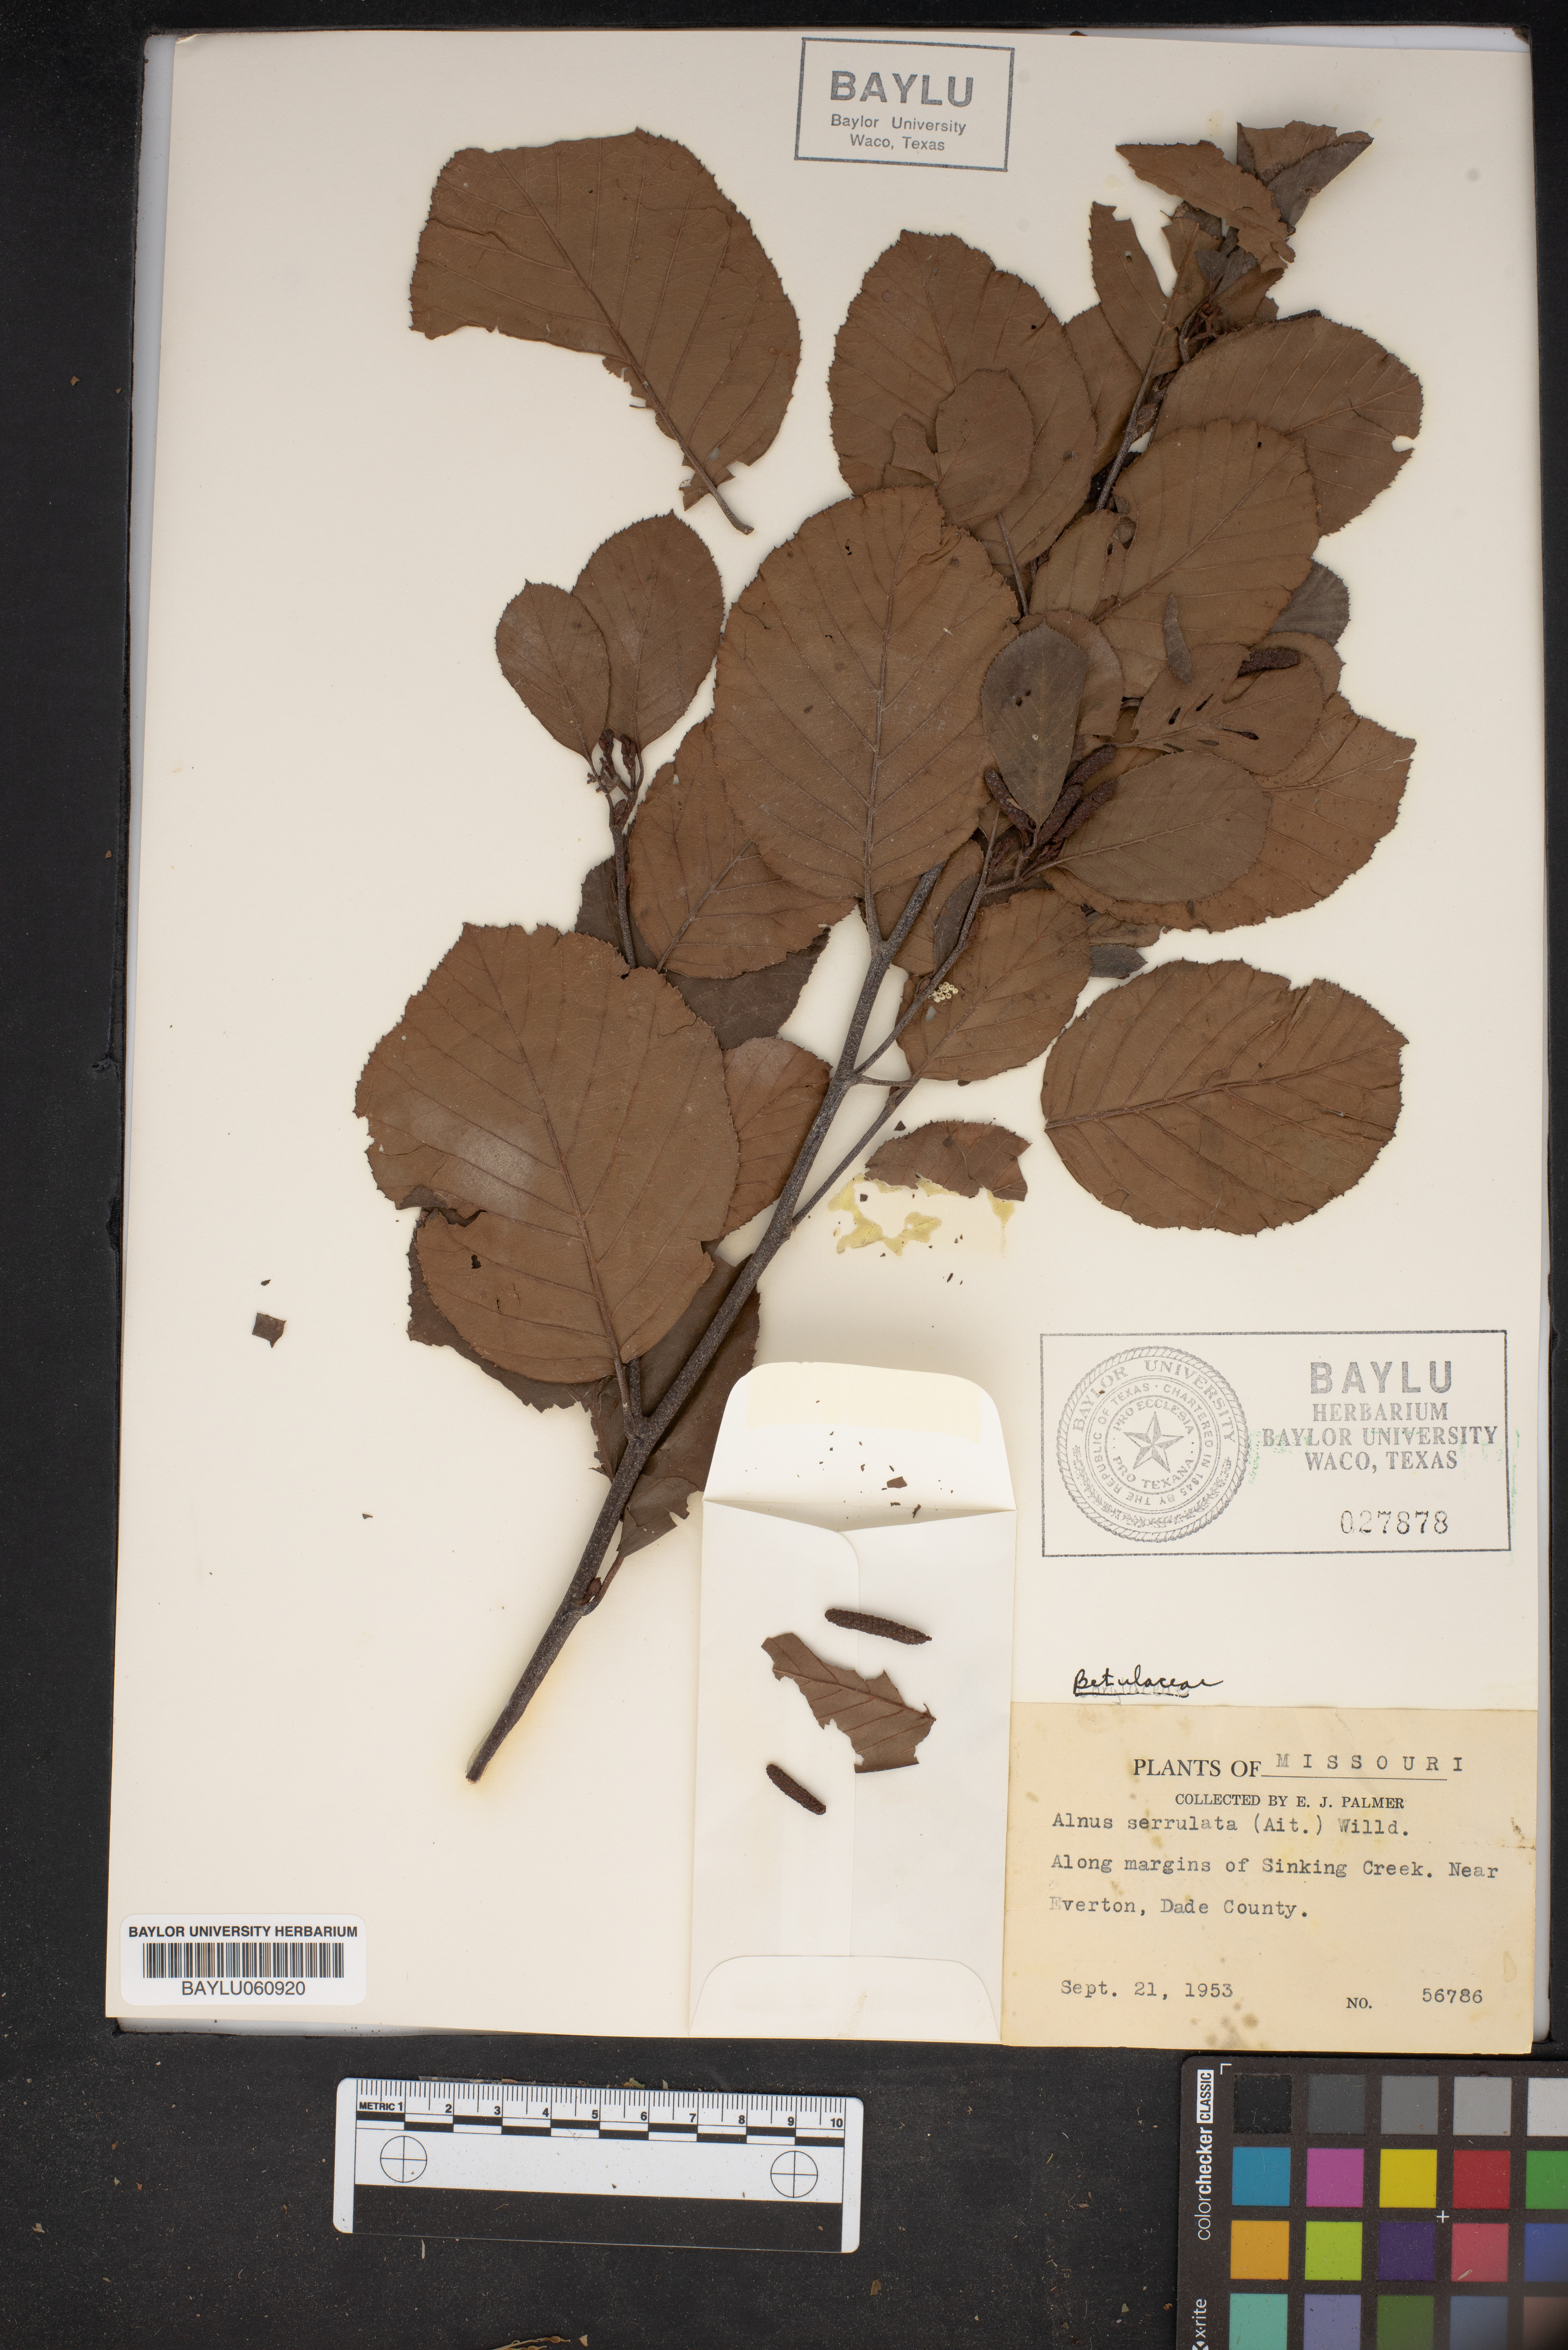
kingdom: Plantae
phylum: Tracheophyta
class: Magnoliopsida
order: Fagales
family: Betulaceae
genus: Alnus
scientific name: Alnus serrulata
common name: Hazel alder
